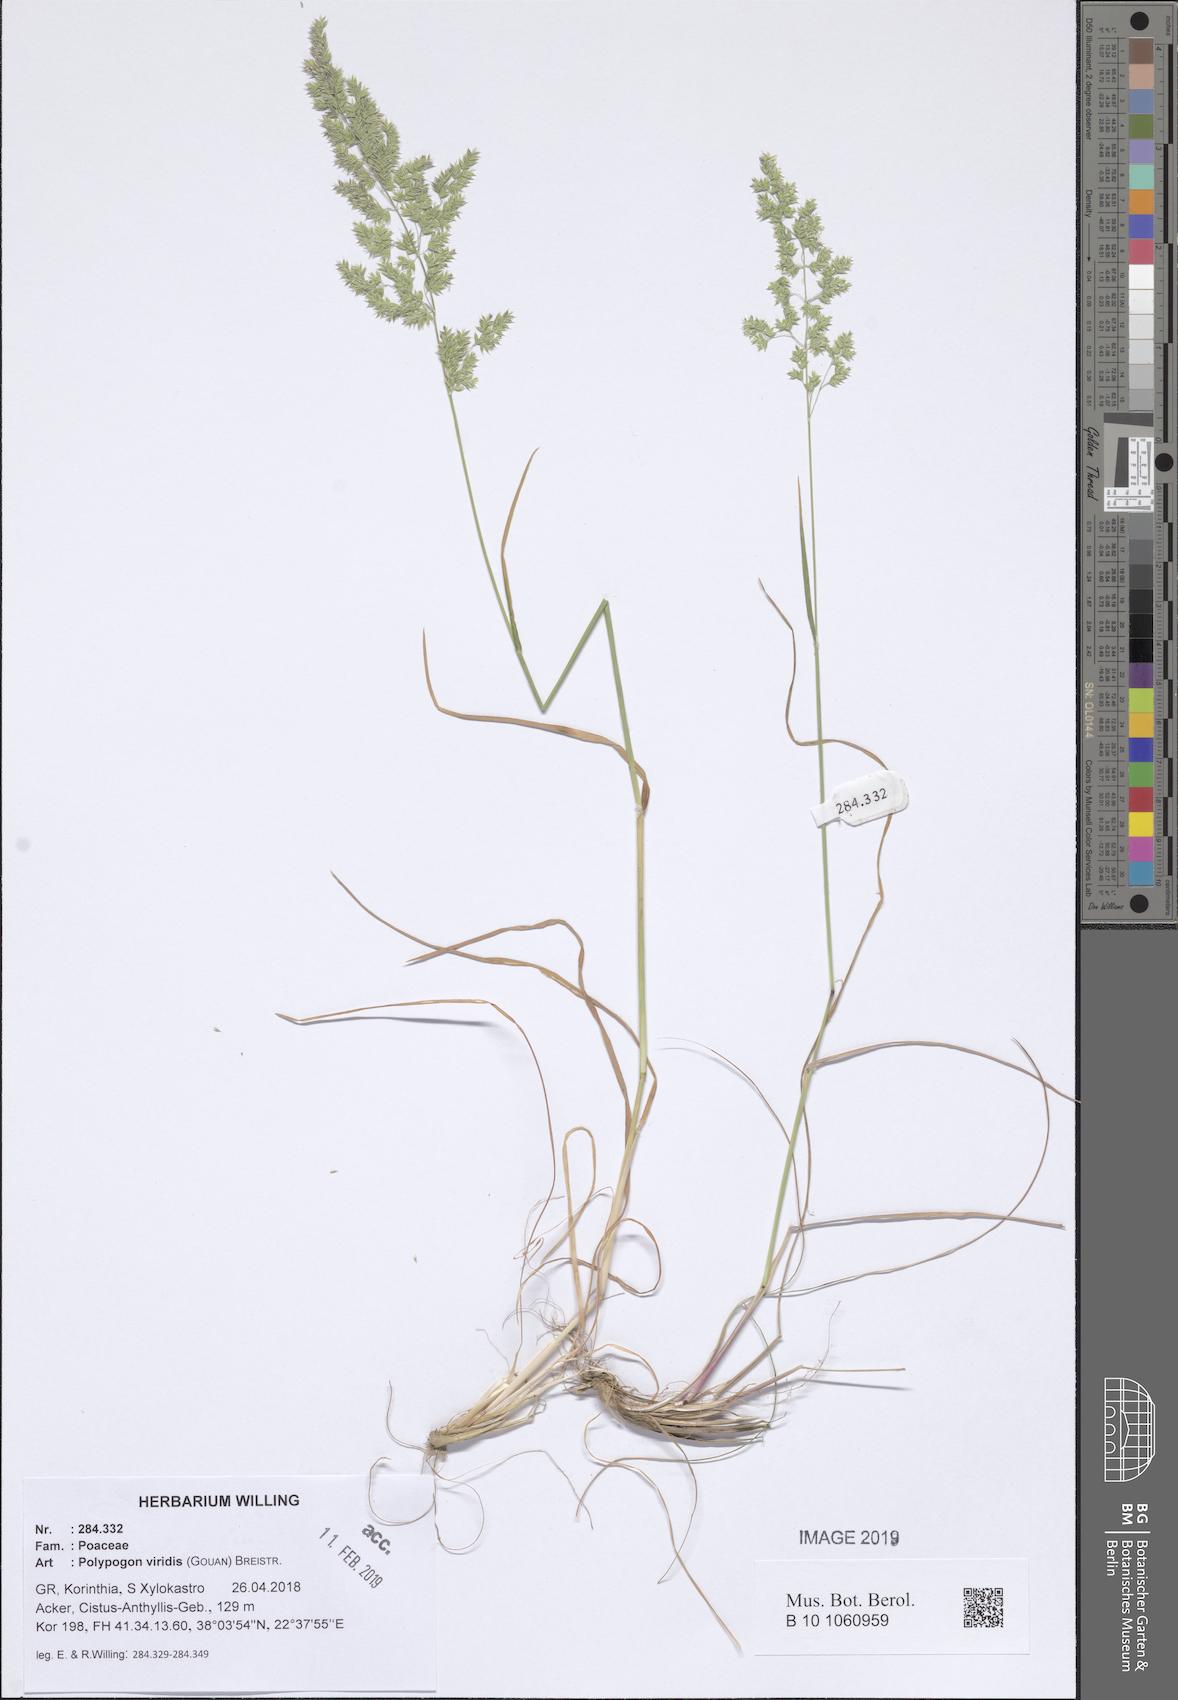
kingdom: Plantae
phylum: Tracheophyta
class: Liliopsida
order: Poales
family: Poaceae
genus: Polypogon
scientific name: Polypogon viridis
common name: Water bent
